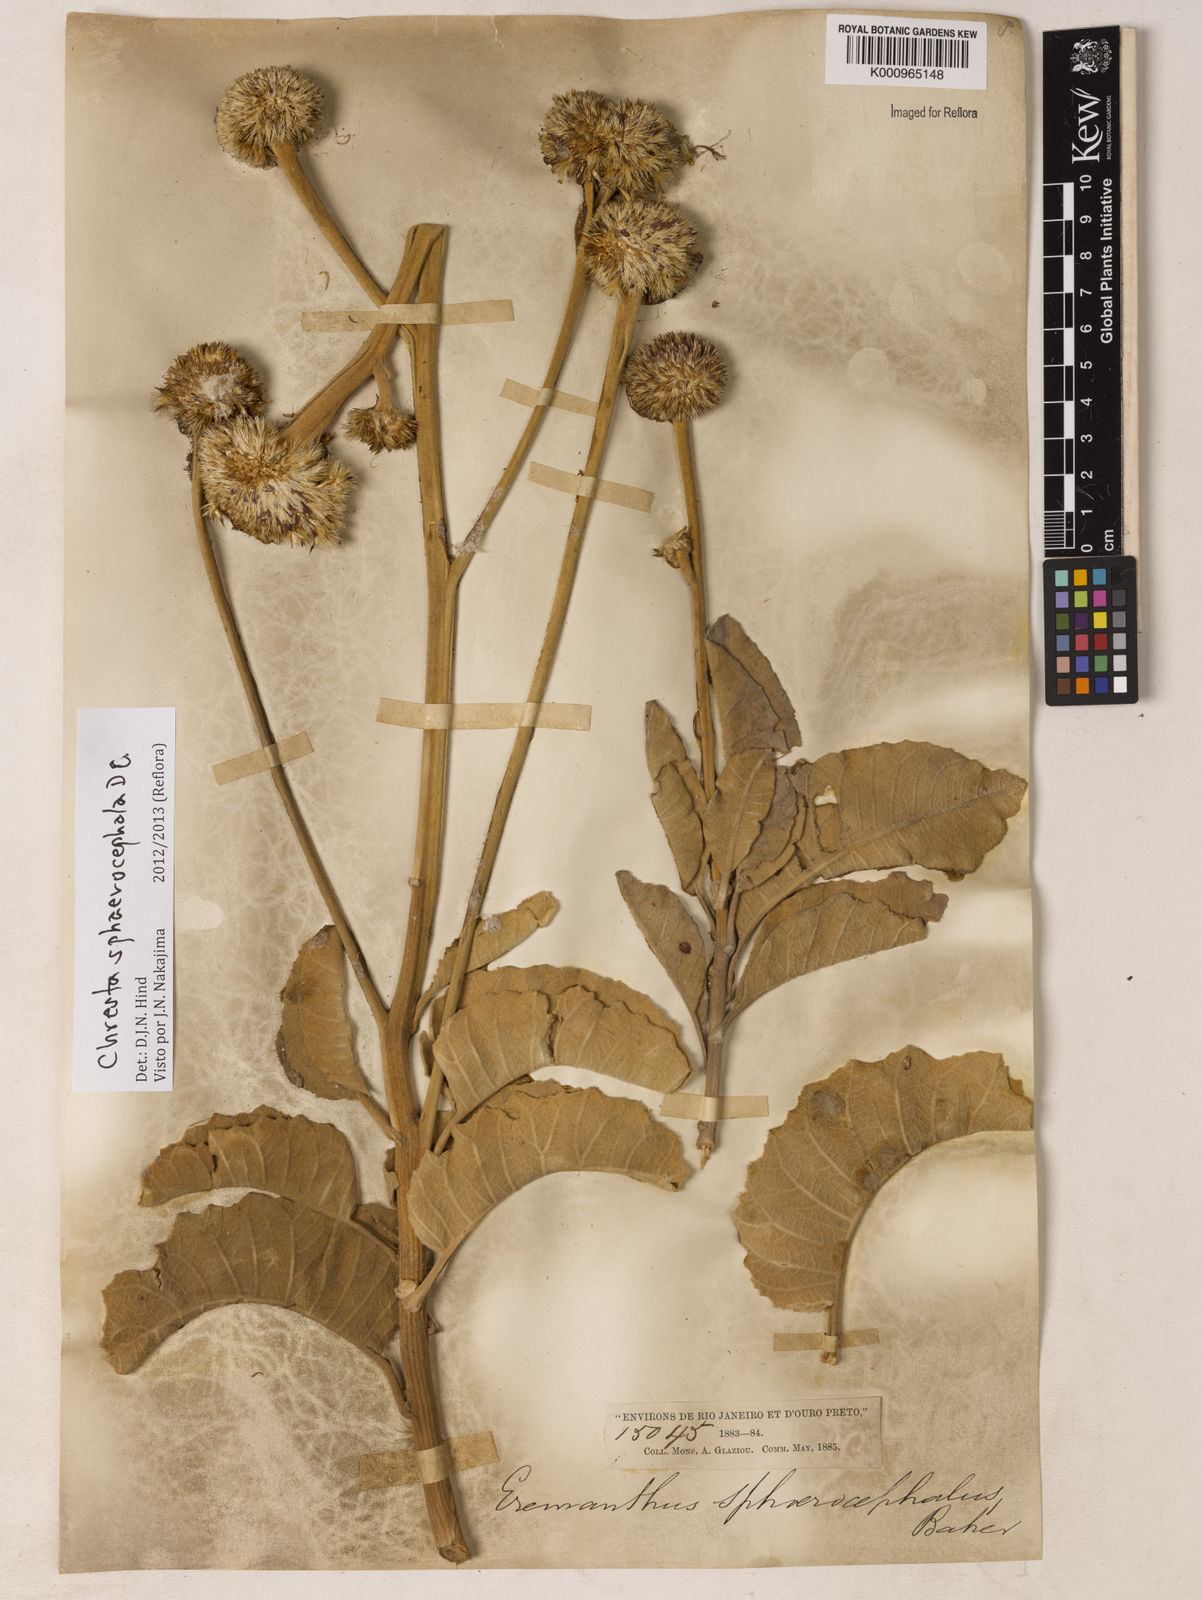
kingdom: Plantae
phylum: Tracheophyta
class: Magnoliopsida
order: Asterales
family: Asteraceae
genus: Chresta
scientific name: Chresta sphaerocephala
